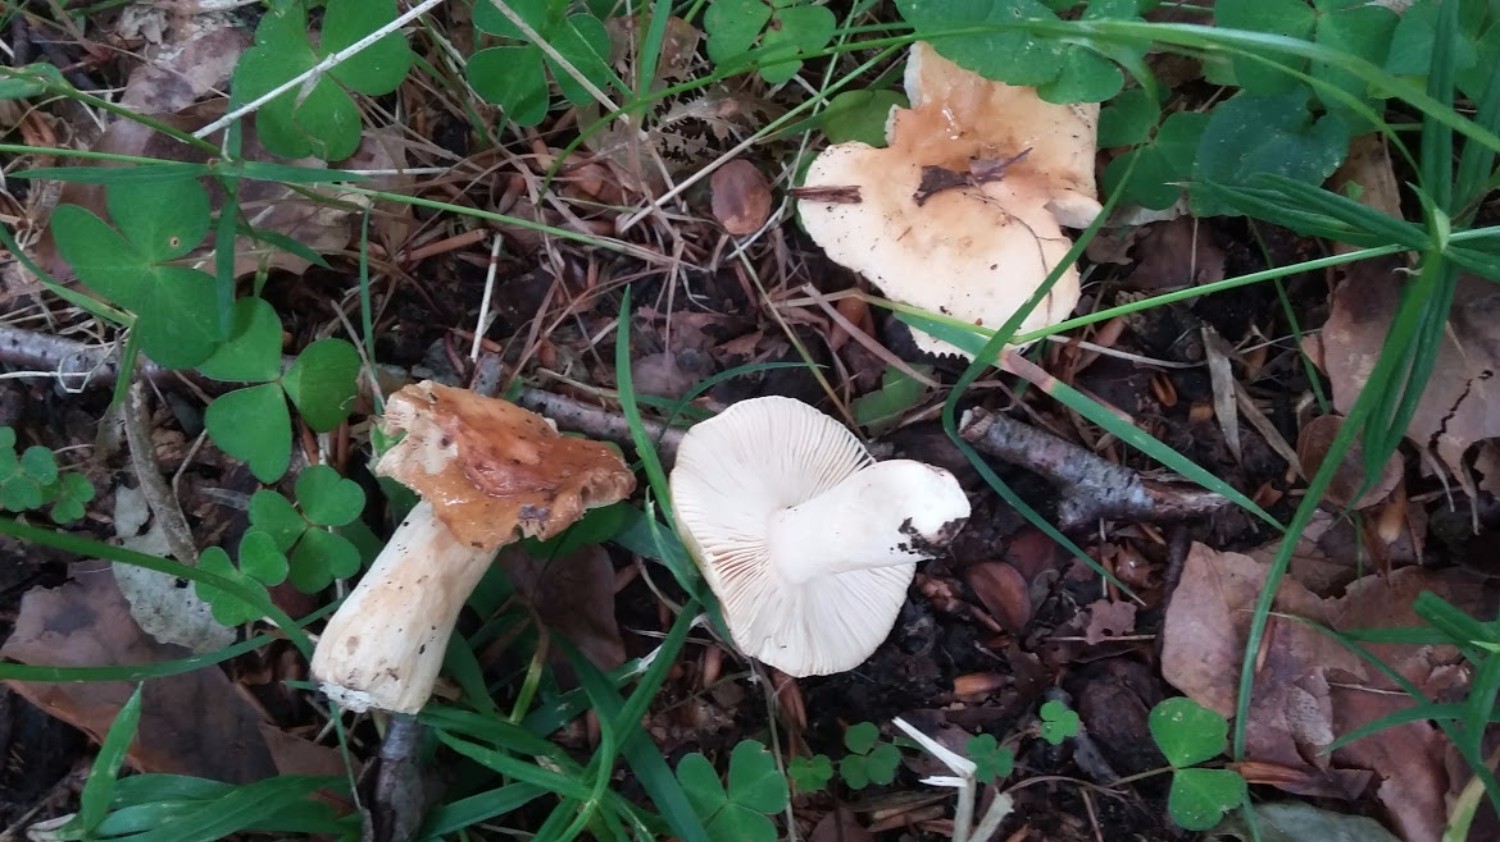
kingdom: Fungi
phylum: Basidiomycota
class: Agaricomycetes
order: Russulales
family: Russulaceae
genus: Russula
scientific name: Russula fellea
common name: galde-skørhat
